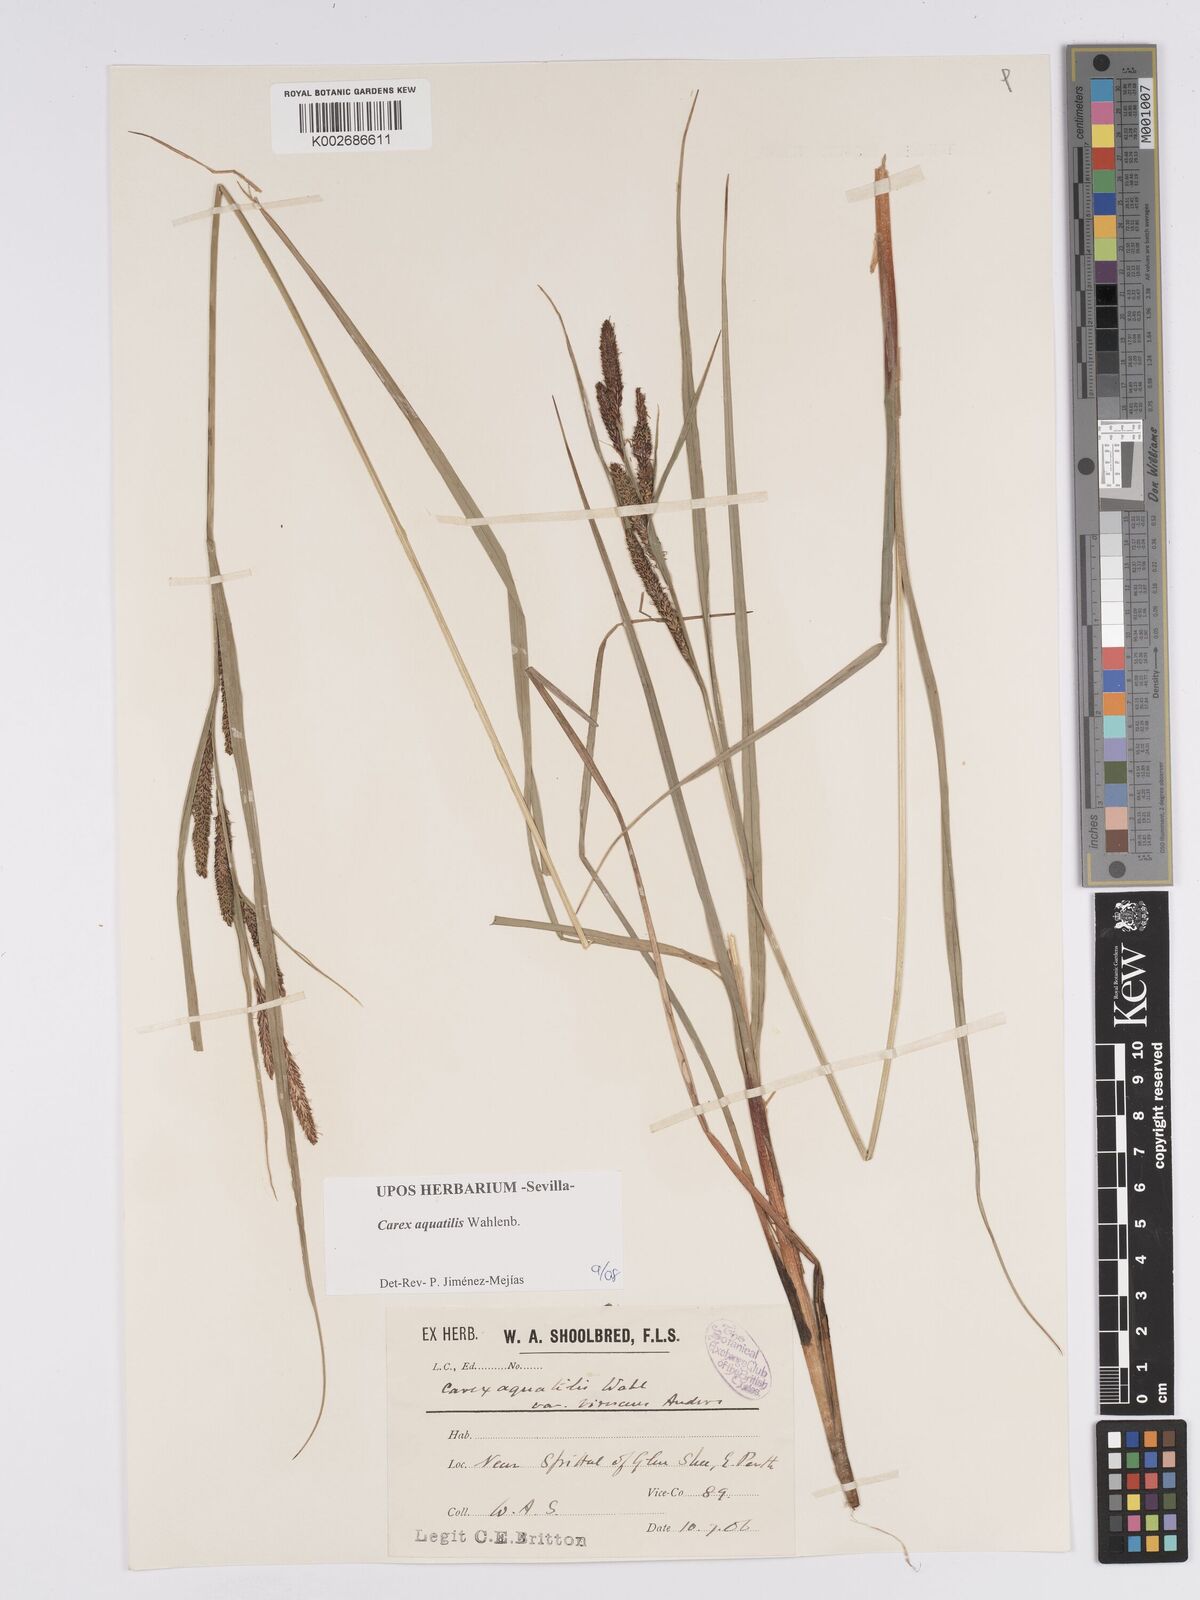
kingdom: Plantae
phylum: Tracheophyta
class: Liliopsida
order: Poales
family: Cyperaceae
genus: Carex
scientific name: Carex aquatilis
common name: Water sedge
